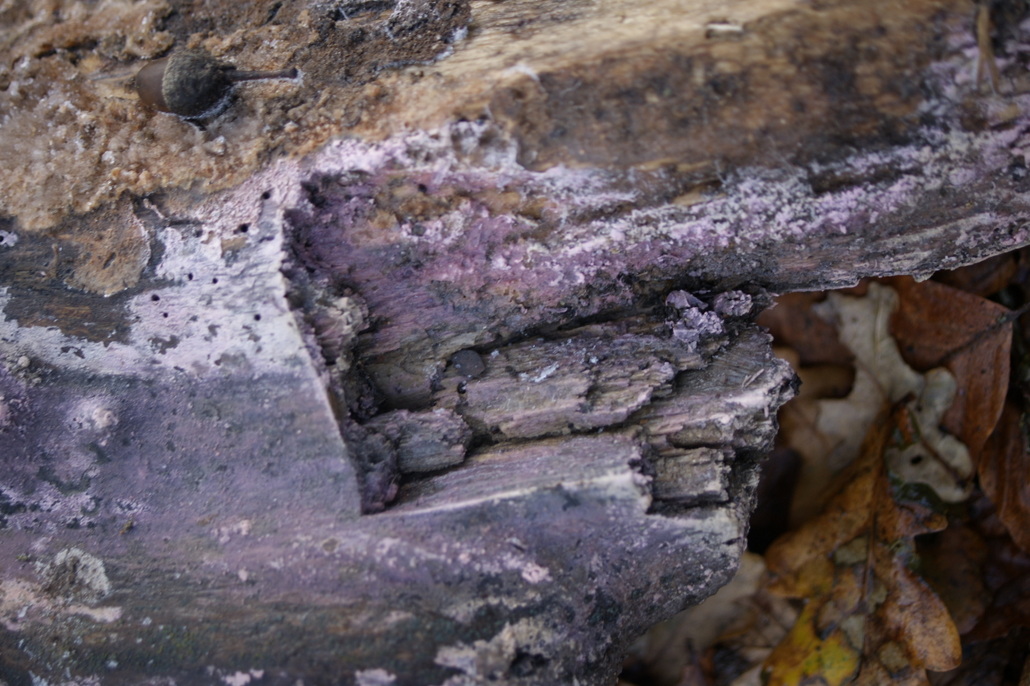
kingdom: Fungi
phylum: Basidiomycota
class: Agaricomycetes
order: Cantharellales
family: Tulasnellaceae
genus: Tulasnella
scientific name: Tulasnella violea
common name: violet ballonhinde
